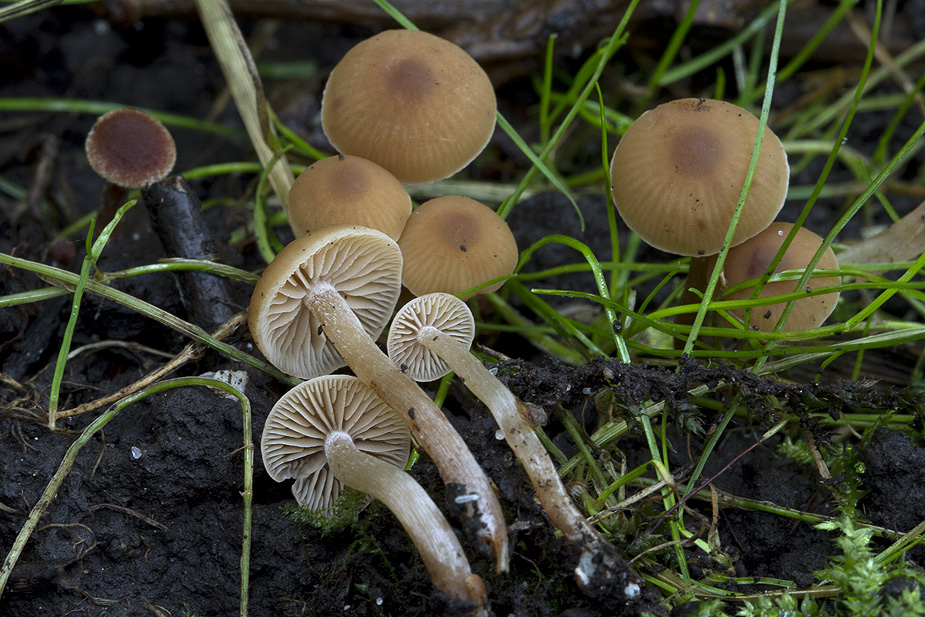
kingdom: Fungi
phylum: Basidiomycota
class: Agaricomycetes
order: Agaricales
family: Hymenogastraceae
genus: Naucoria
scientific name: Naucoria celluloderma
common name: enlig knaphat
